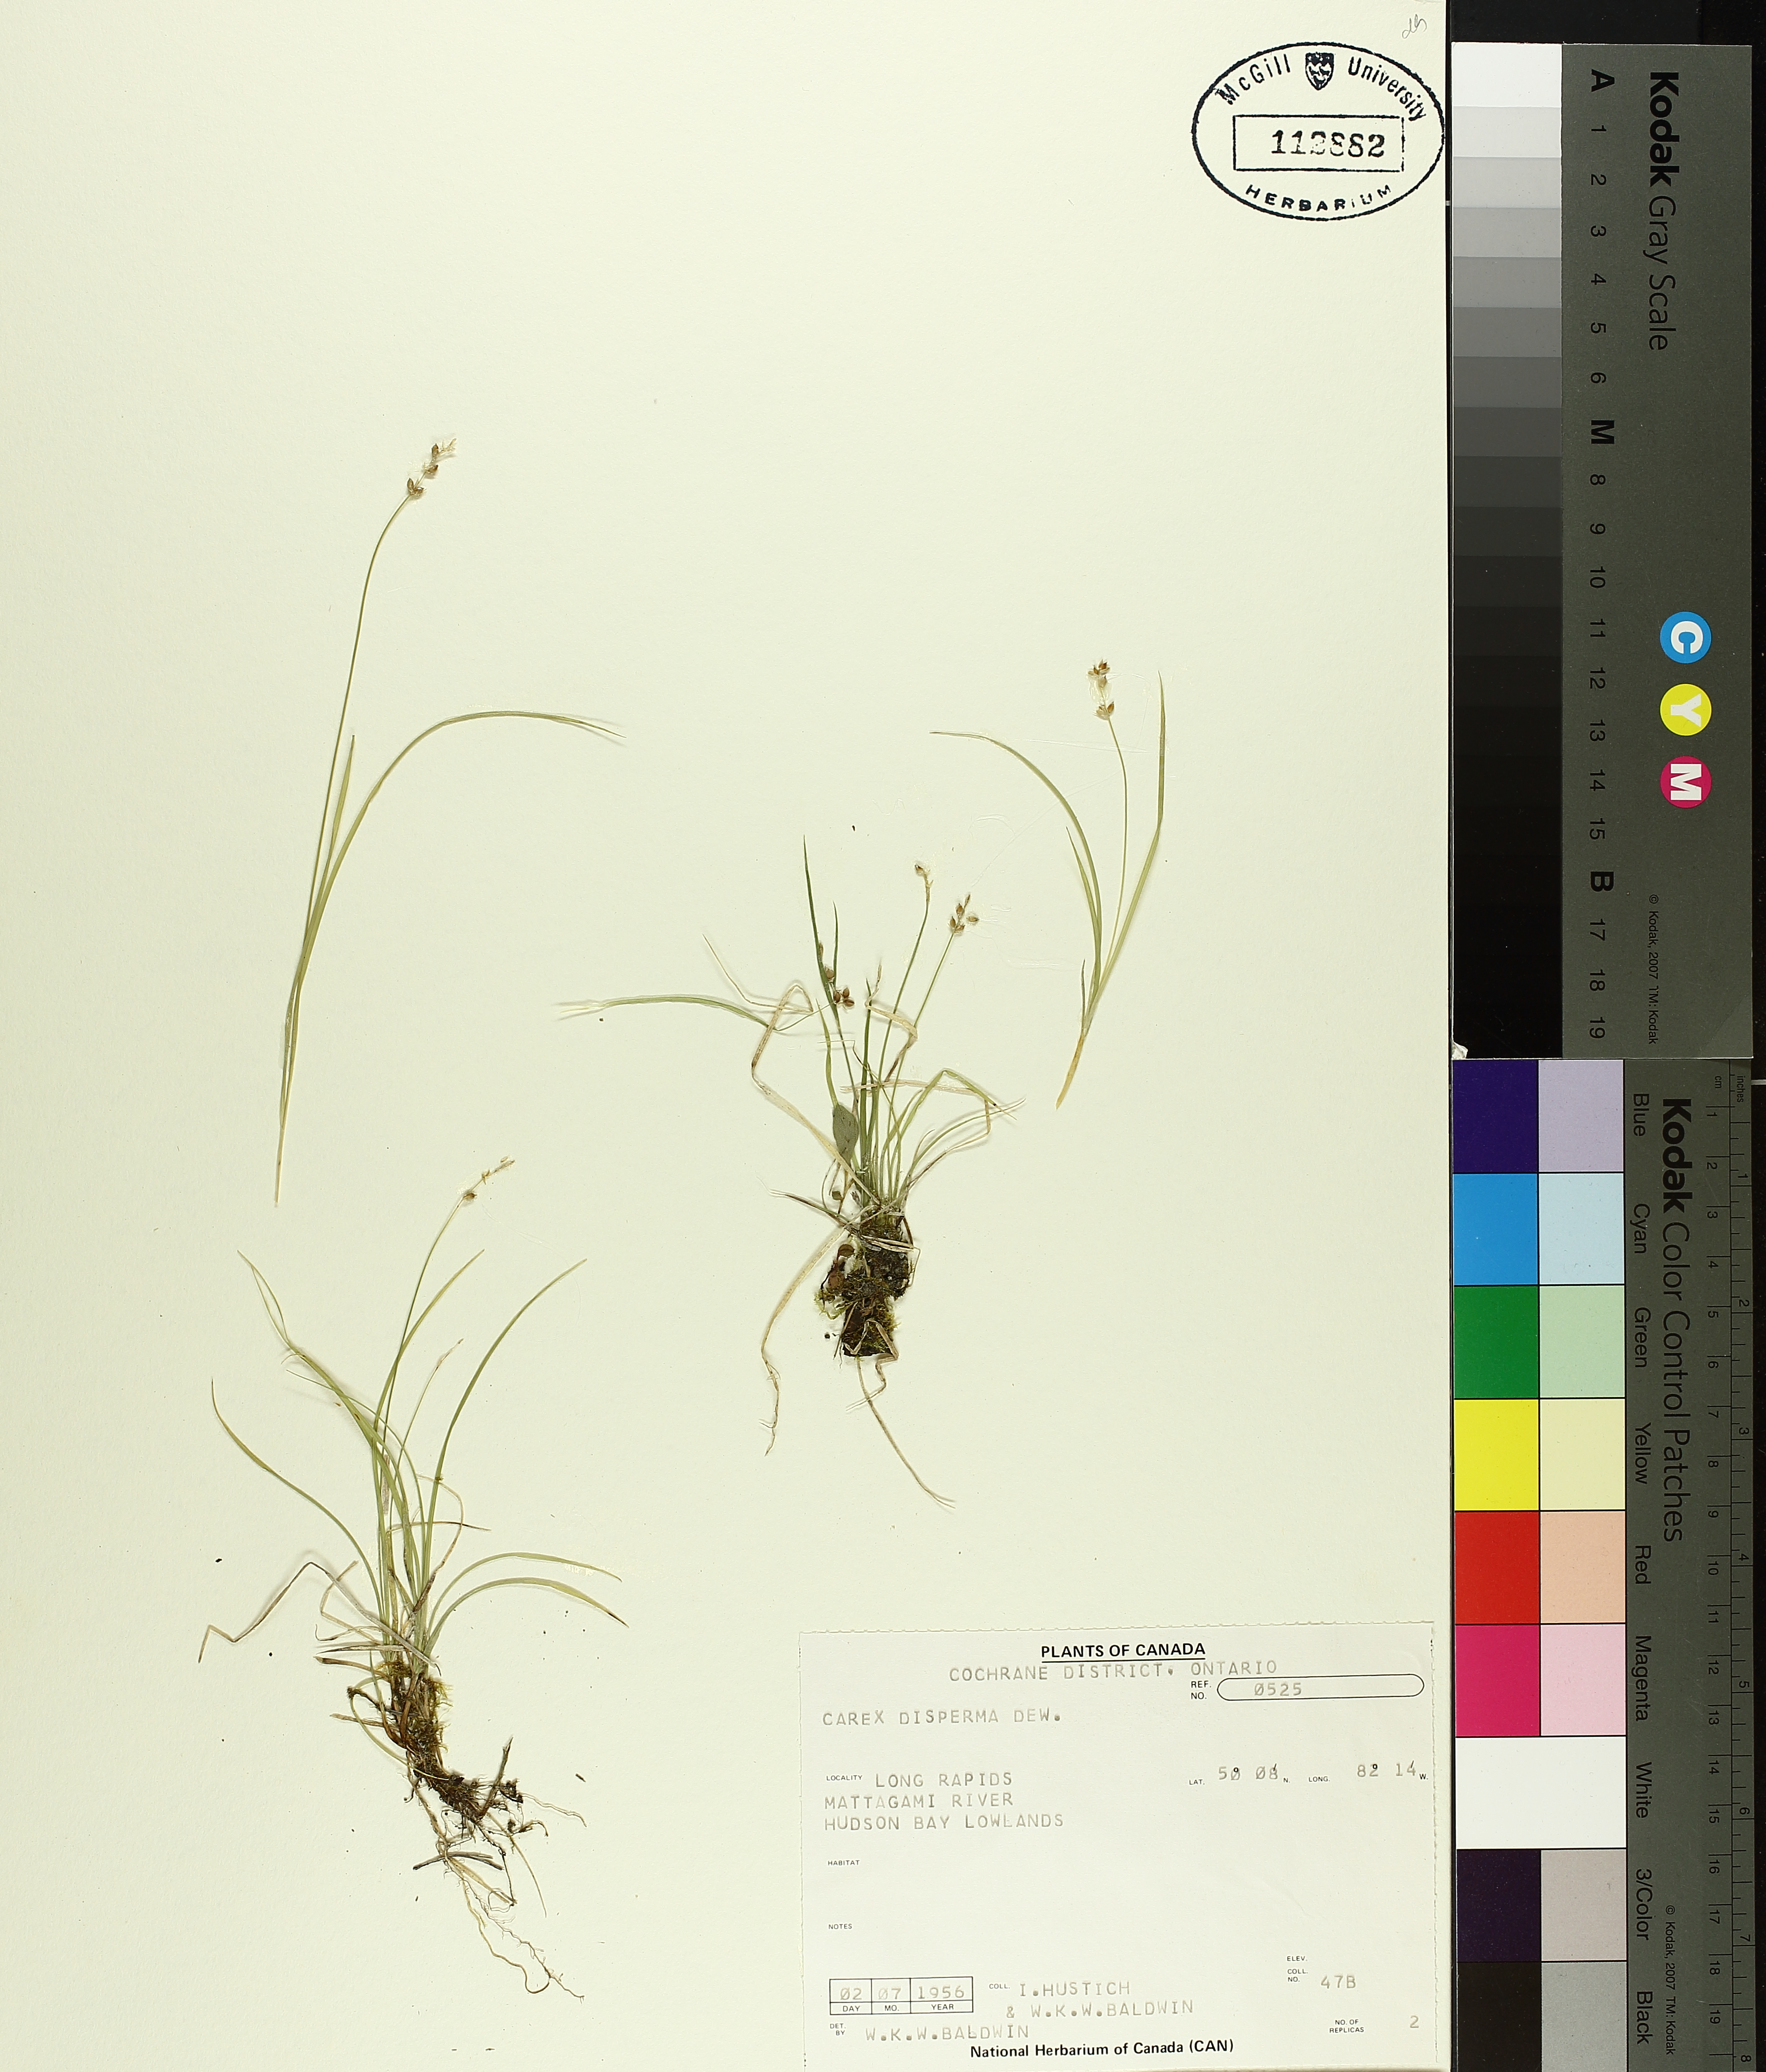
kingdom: Plantae
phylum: Tracheophyta
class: Liliopsida
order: Poales
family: Cyperaceae
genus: Carex
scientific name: Carex disperma
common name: Short-leaved sedge
